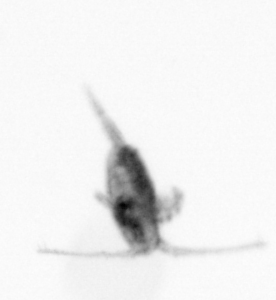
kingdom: Animalia
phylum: Arthropoda
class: Copepoda
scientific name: Copepoda
